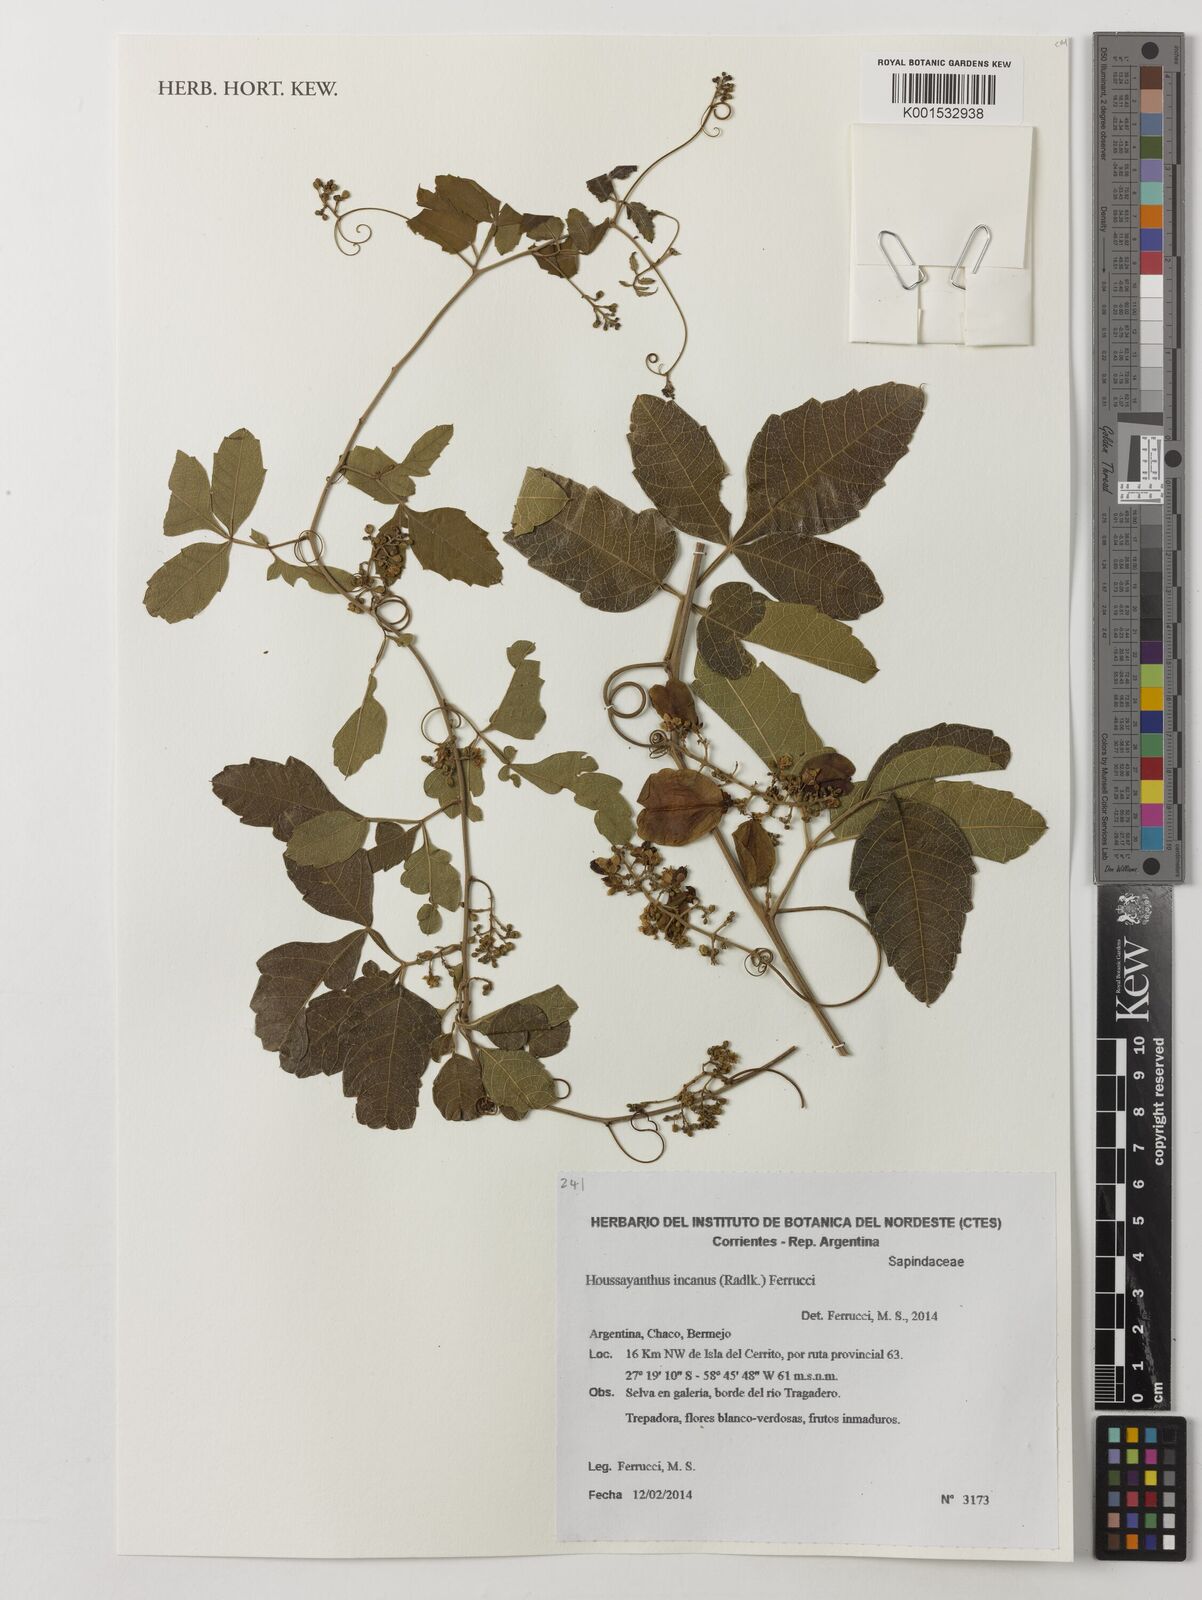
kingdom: Plantae
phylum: Tracheophyta
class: Magnoliopsida
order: Sapindales
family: Sapindaceae
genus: Serjania
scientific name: Serjania incana
